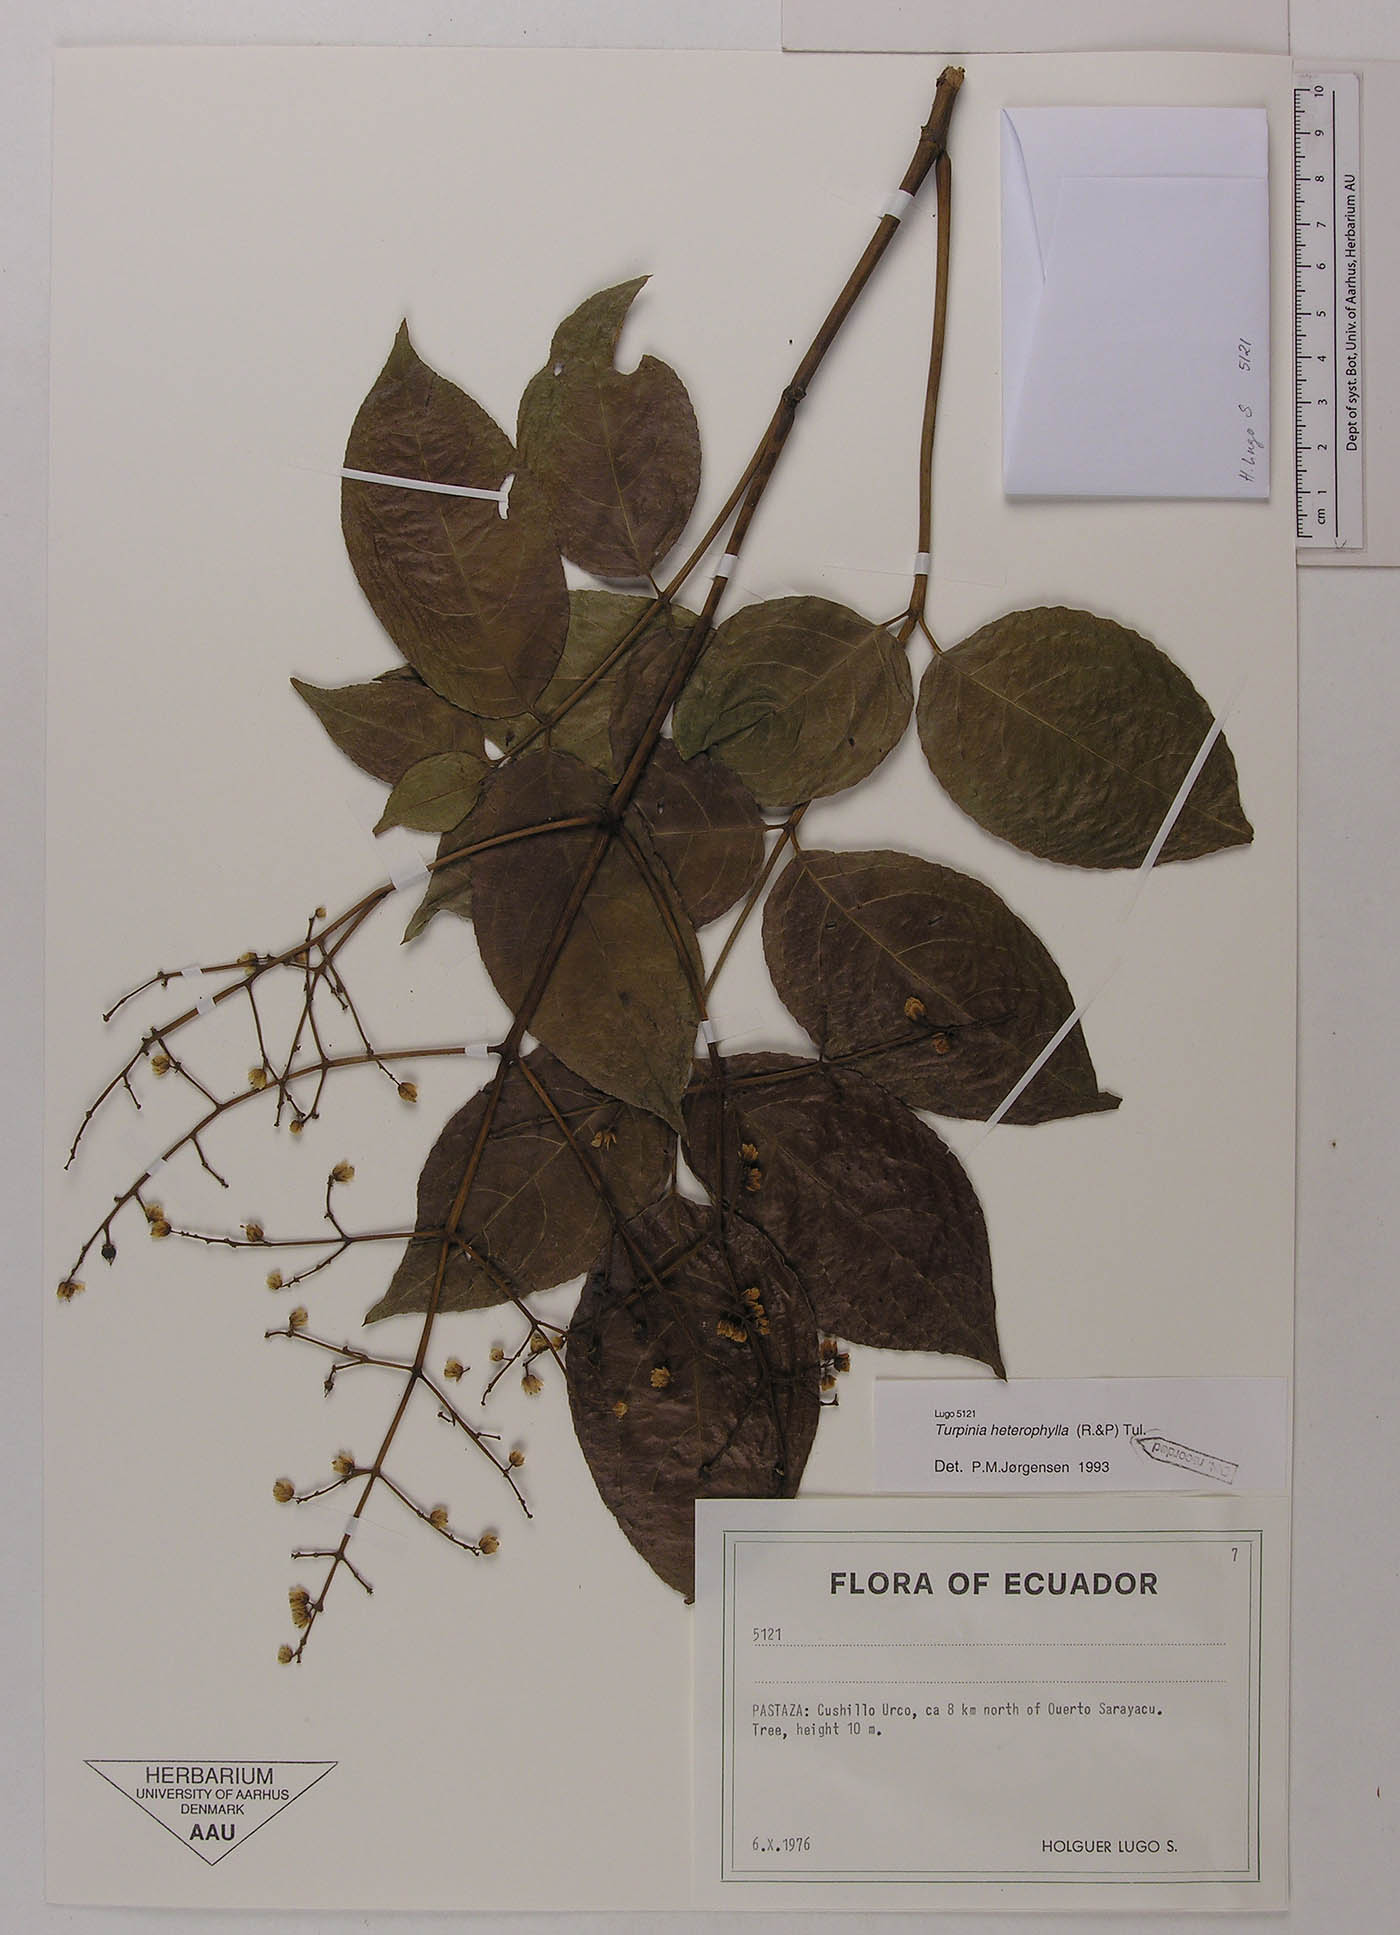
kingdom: Plantae
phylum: Tracheophyta
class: Magnoliopsida
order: Crossosomatales
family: Staphyleaceae
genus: Turpinia
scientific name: Turpinia occidentalis
